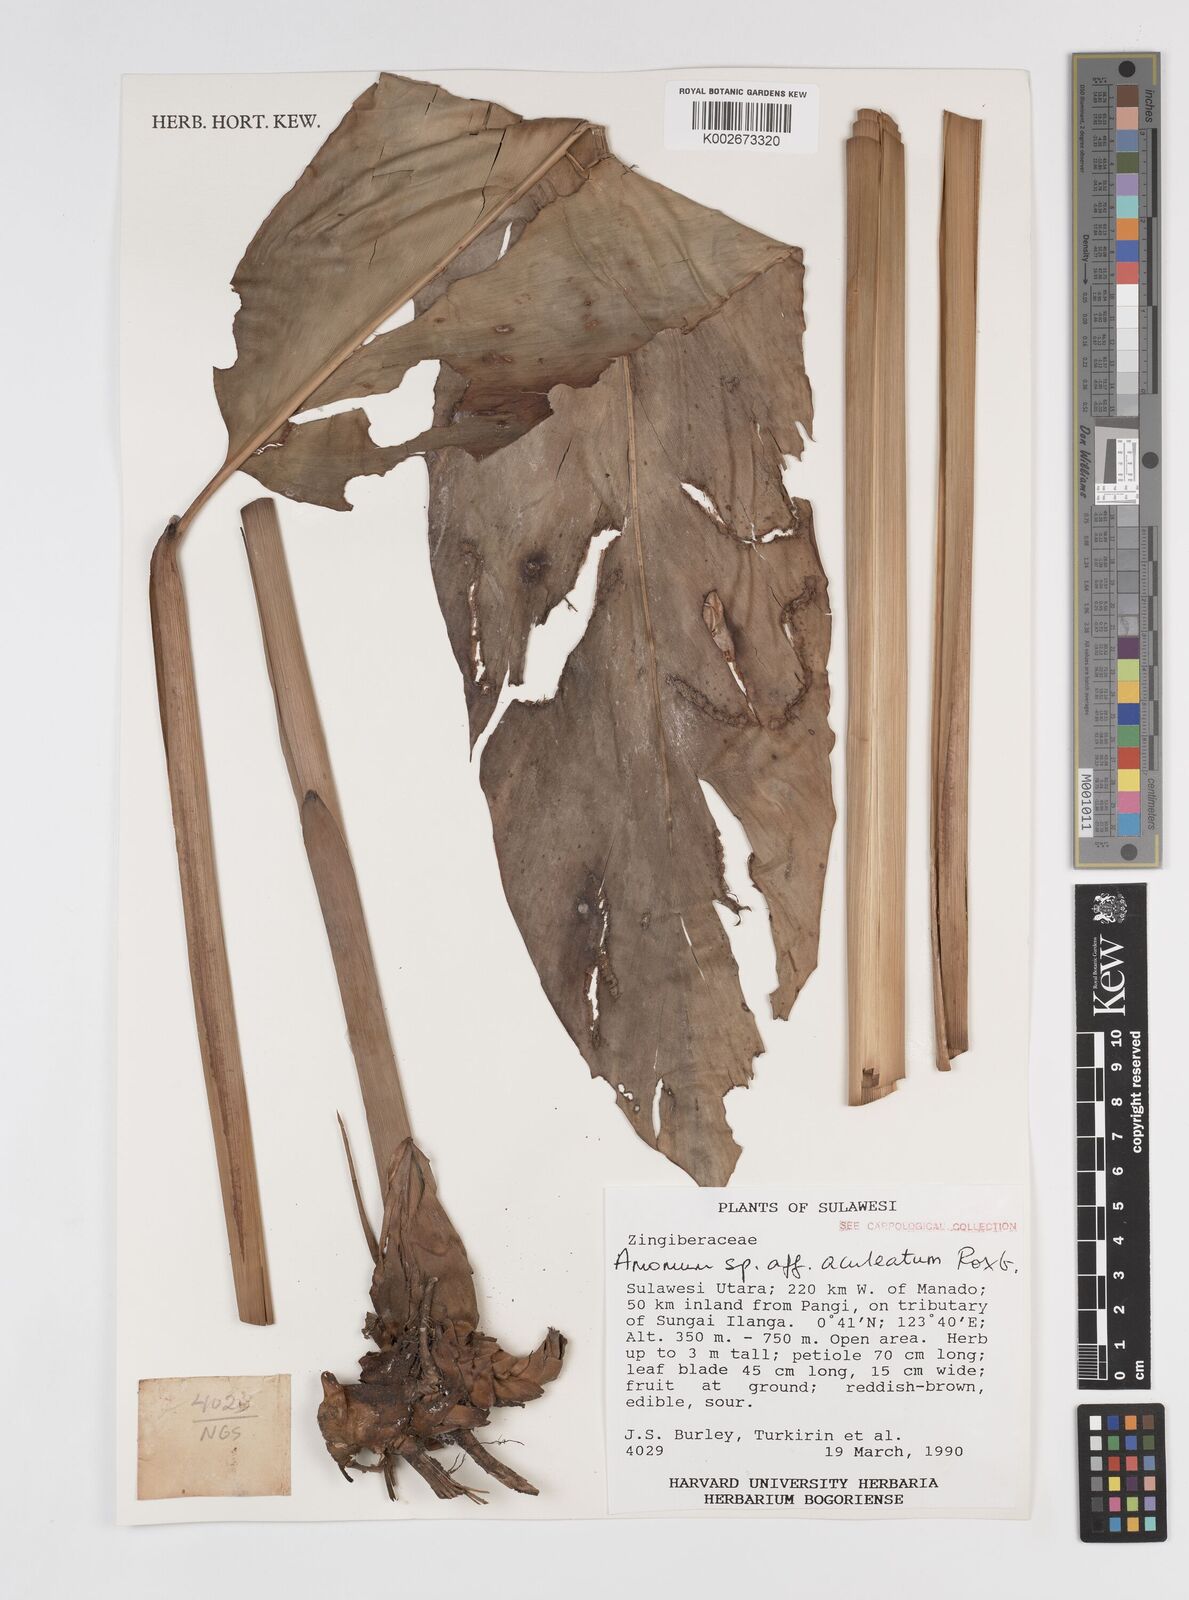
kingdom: Plantae
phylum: Tracheophyta
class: Liliopsida
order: Zingiberales
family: Zingiberaceae
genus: Meistera
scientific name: Meistera aculeata
